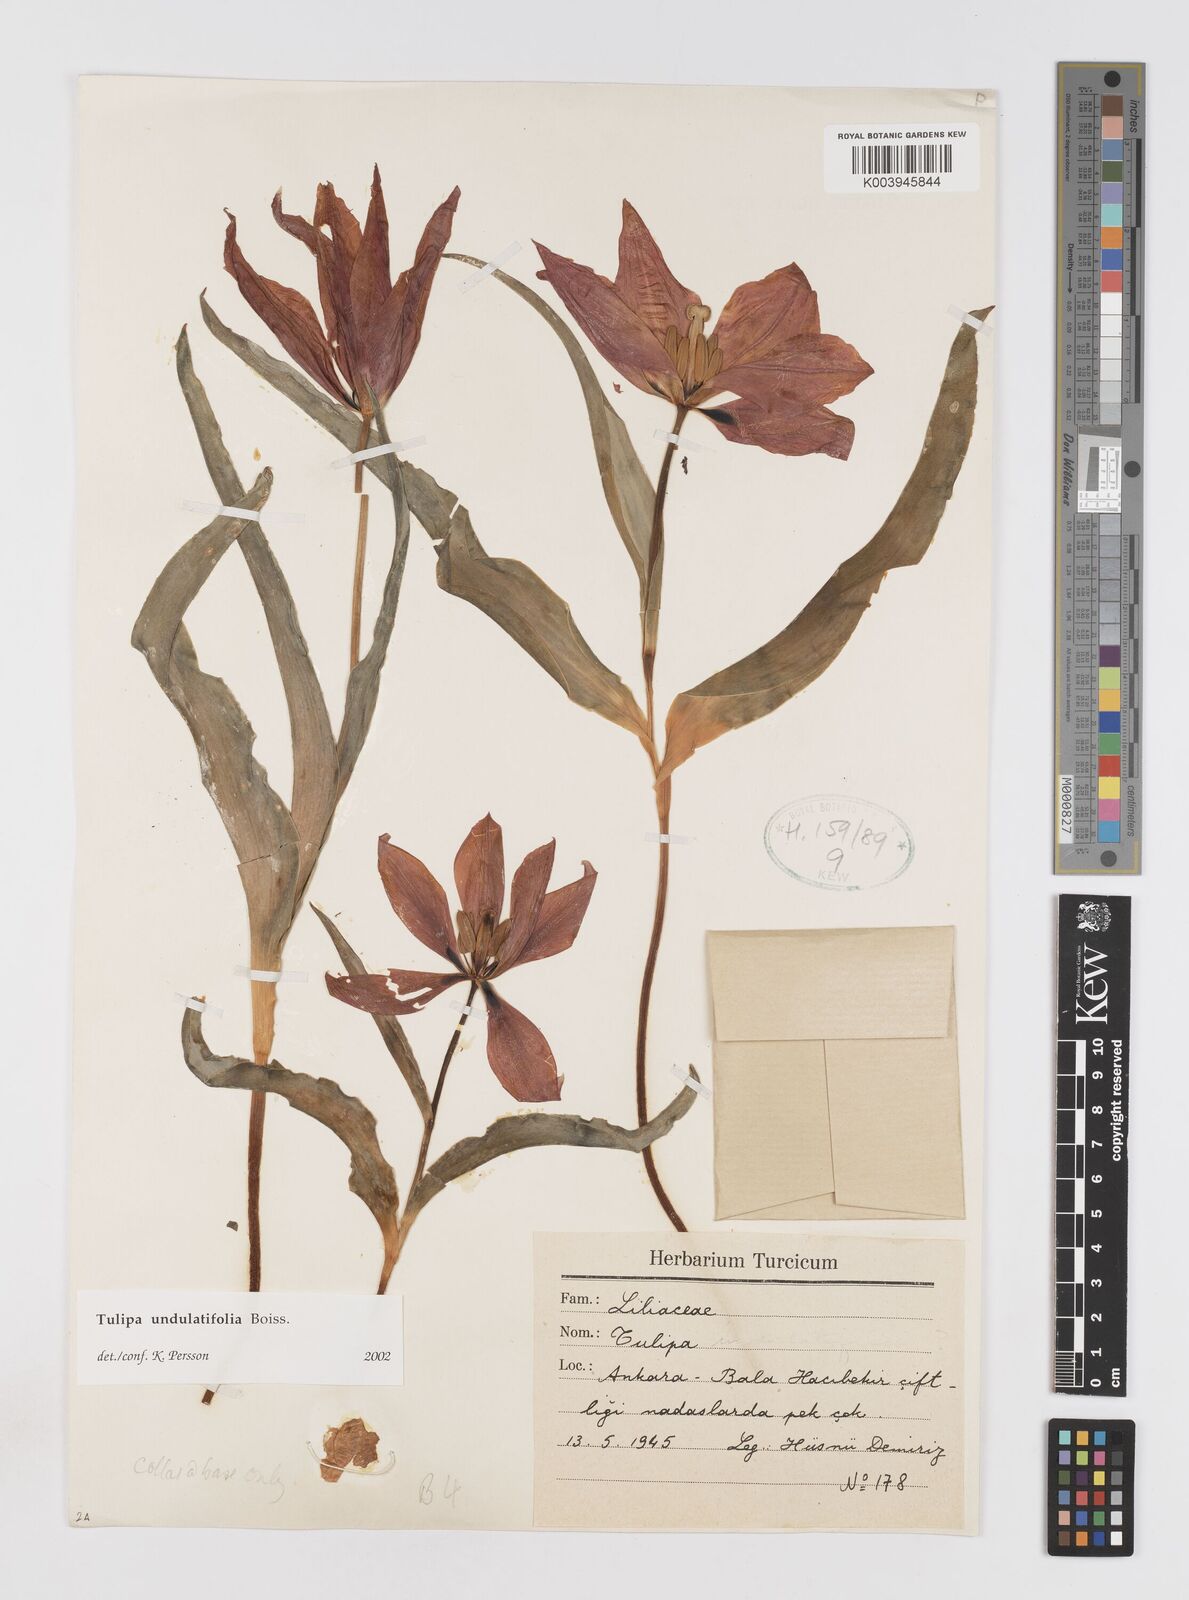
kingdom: Plantae
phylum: Tracheophyta
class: Liliopsida
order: Liliales
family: Liliaceae
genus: Tulipa
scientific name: Tulipa undulatifolia
